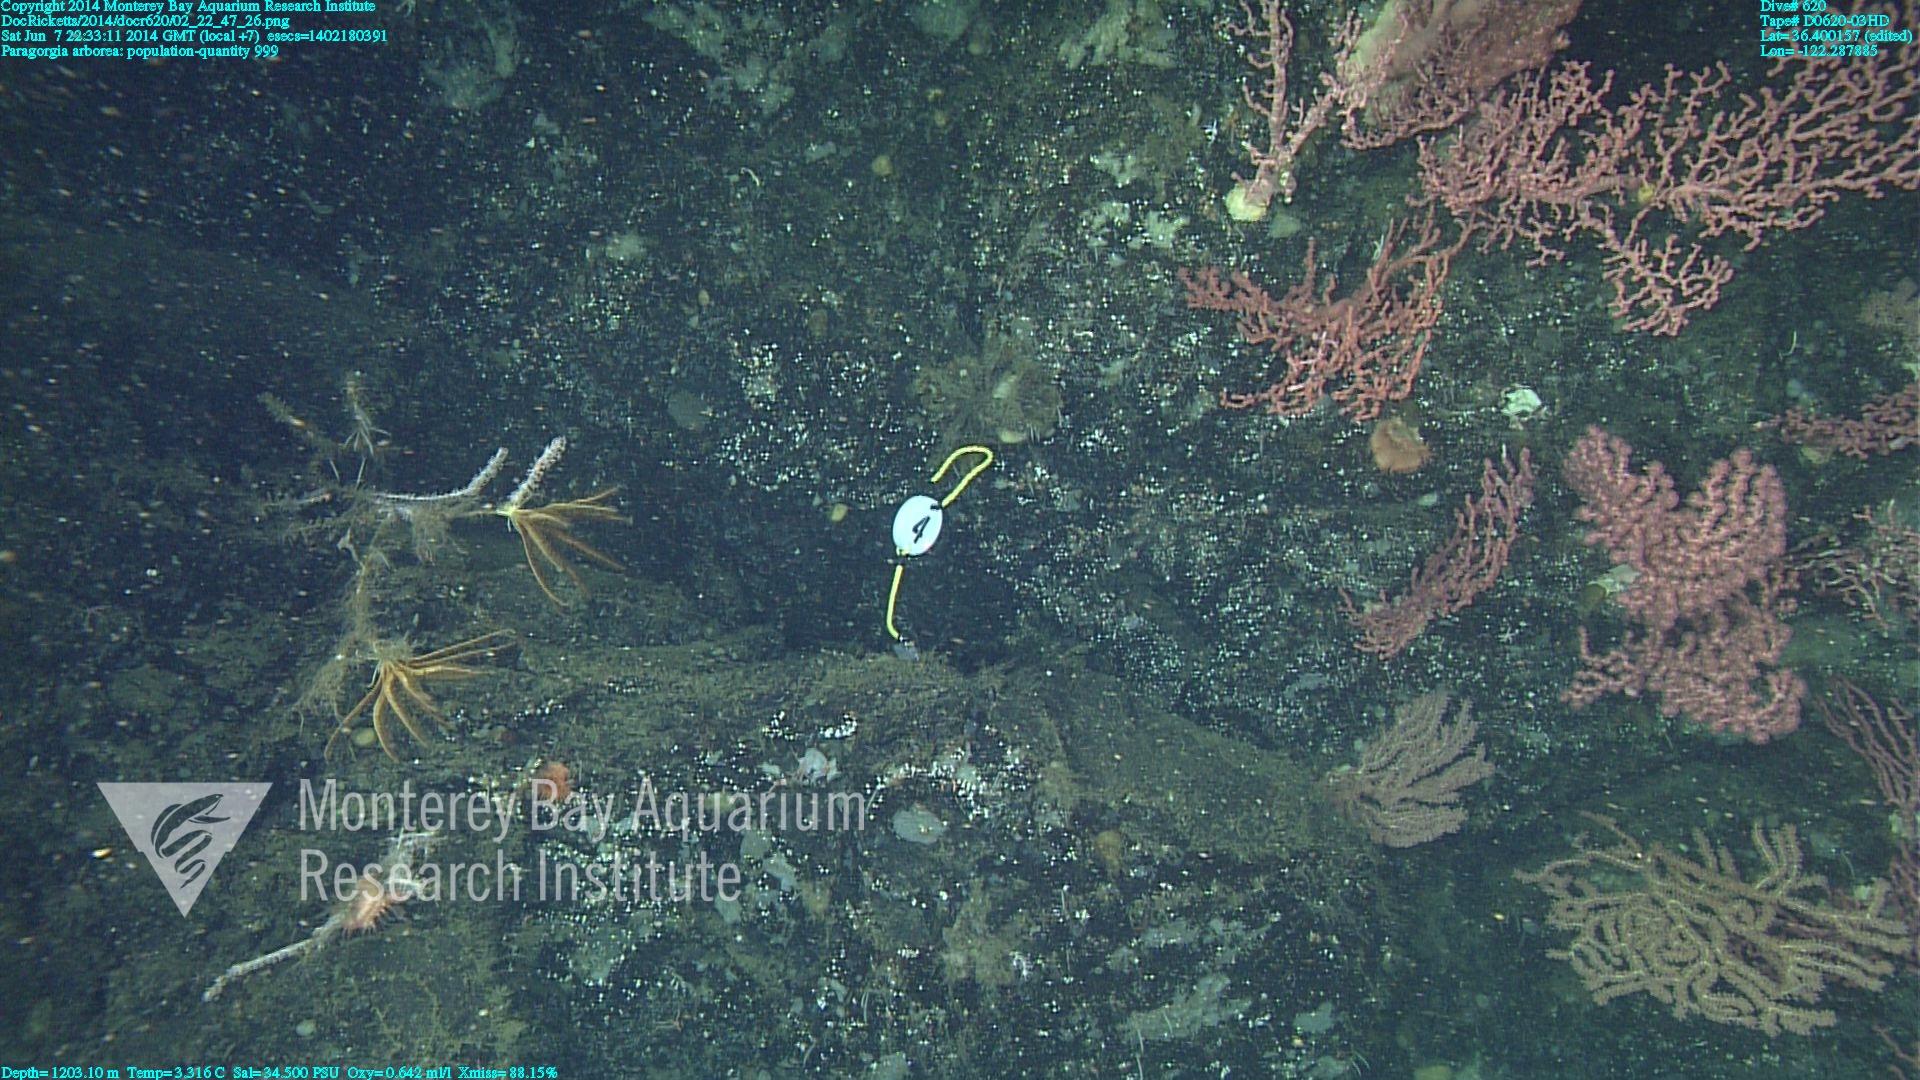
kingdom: Animalia
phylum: Cnidaria
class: Anthozoa
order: Scleralcyonacea
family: Coralliidae
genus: Paragorgia
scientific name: Paragorgia arborea
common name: Bubble gum coral
